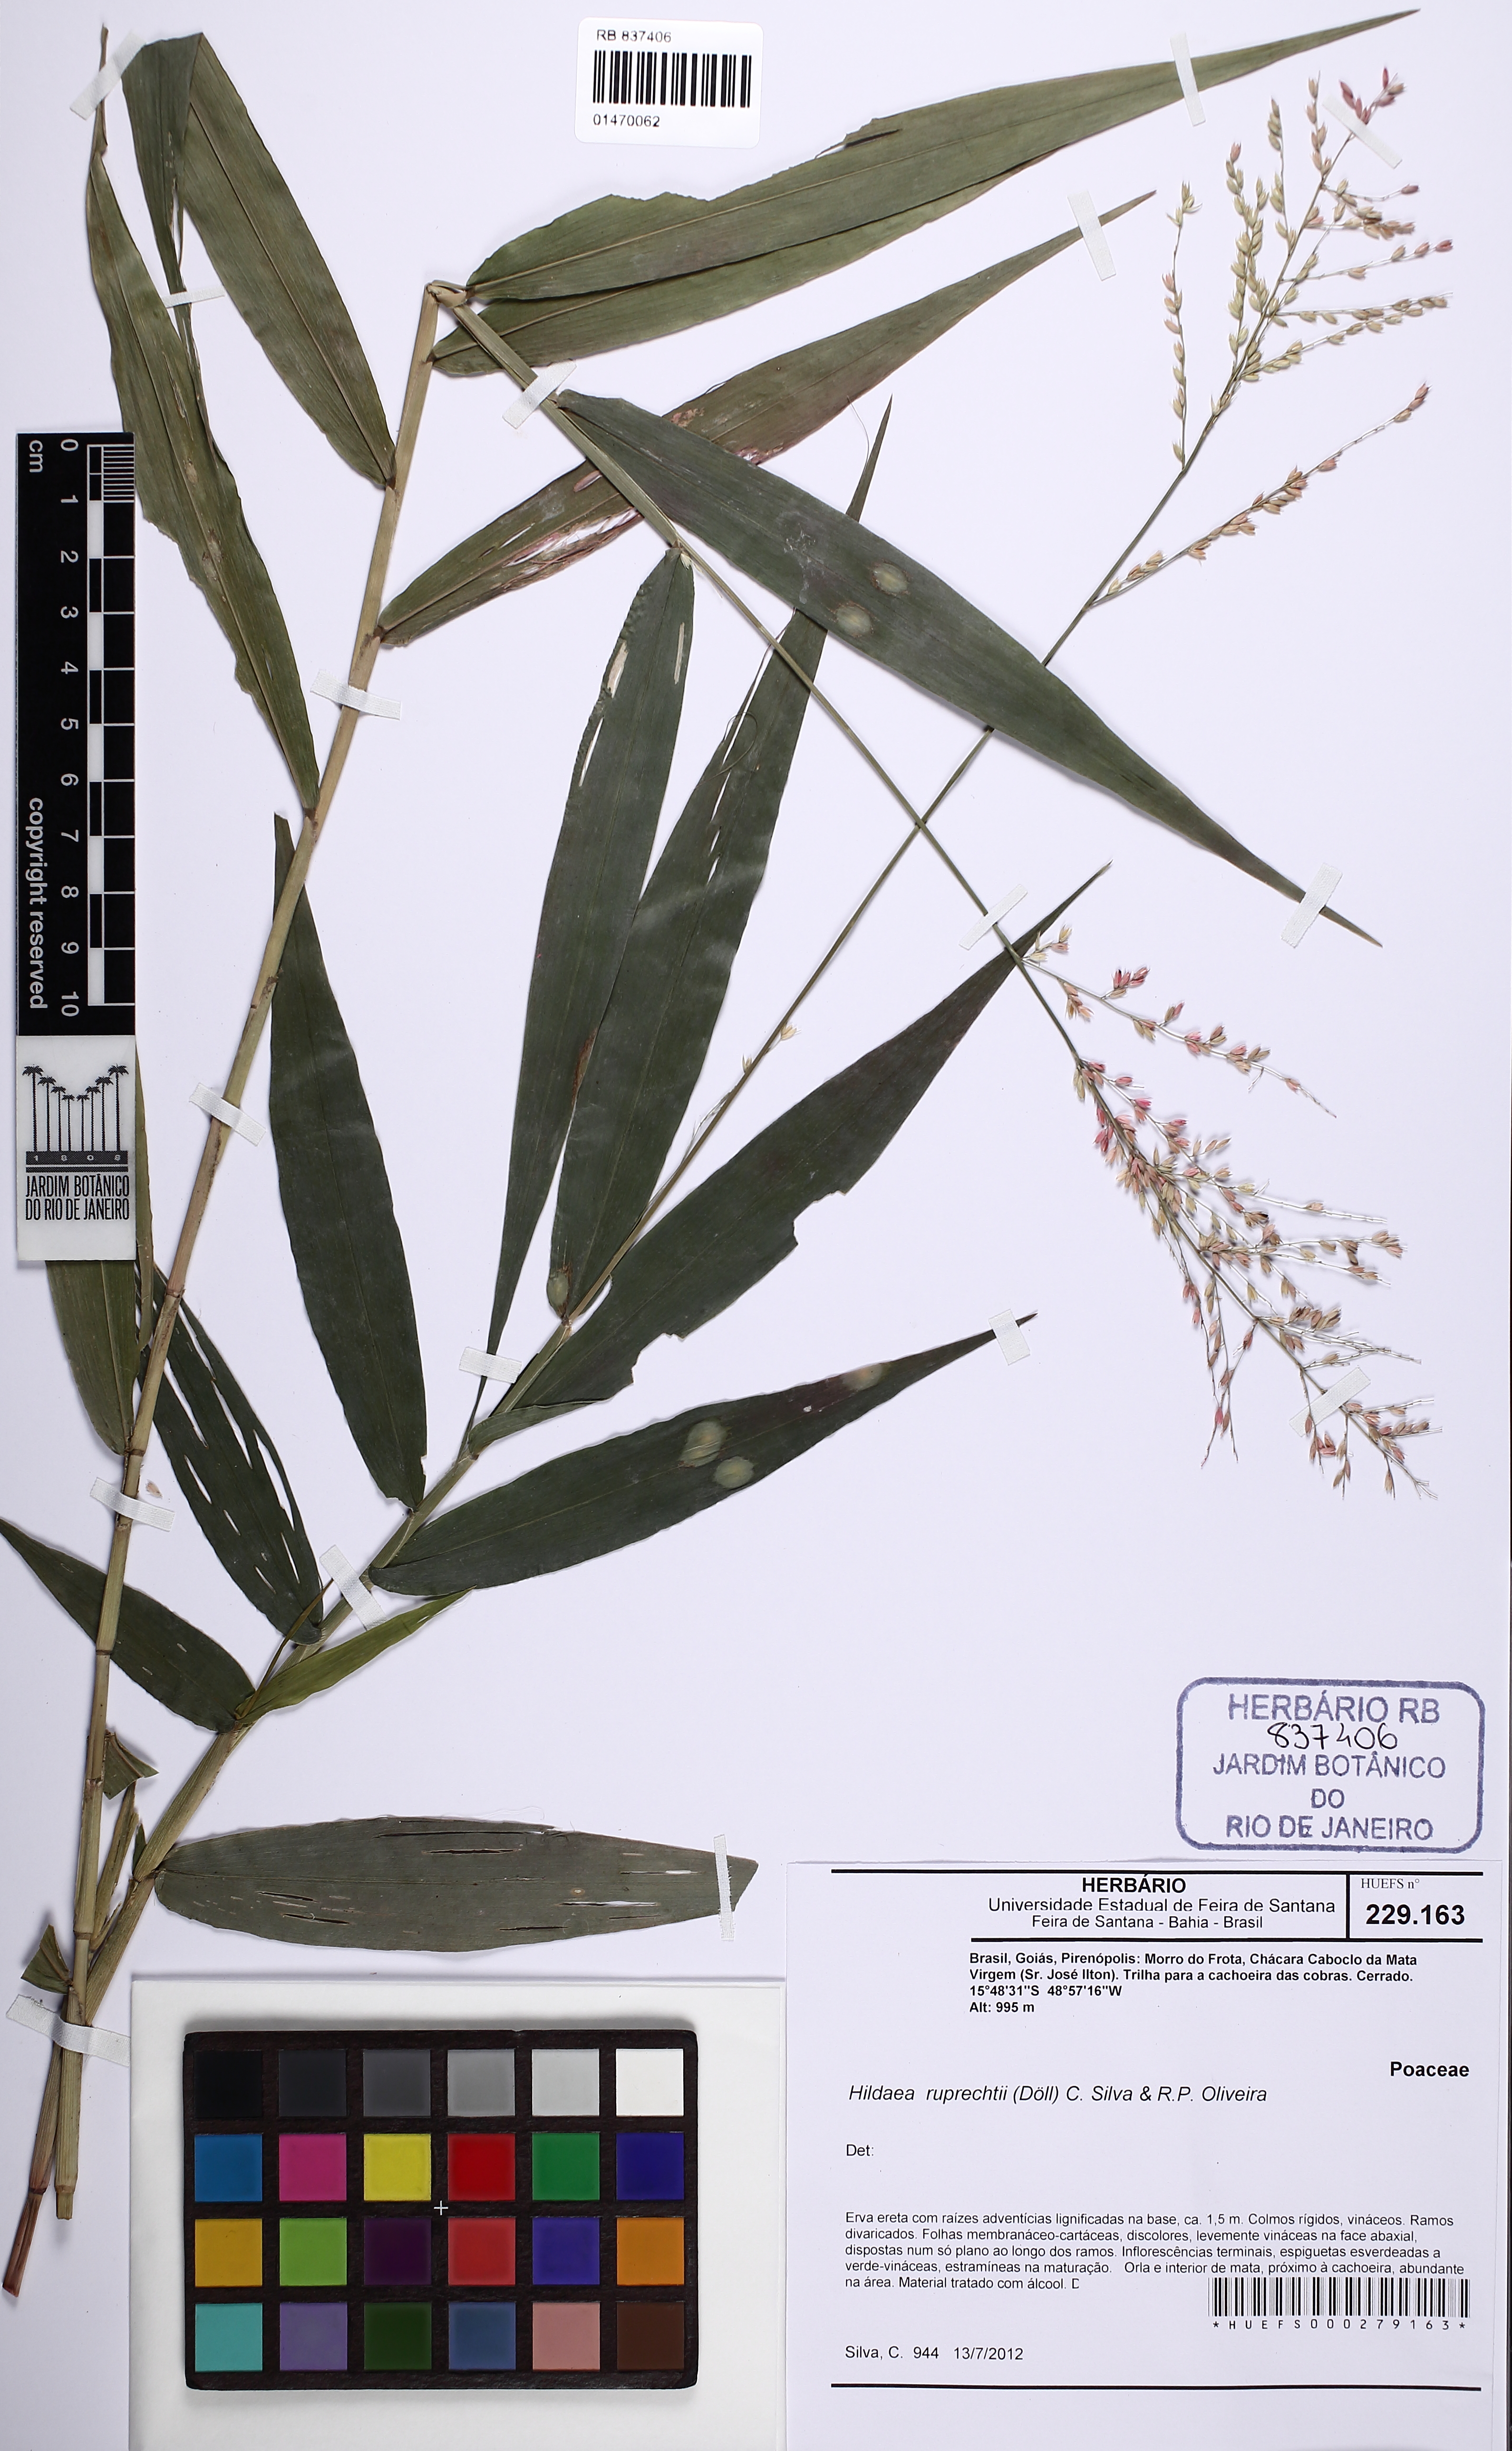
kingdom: Plantae
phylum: Tracheophyta
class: Liliopsida
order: Poales
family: Poaceae
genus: Ichnanthus
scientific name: Ichnanthus ruprechtii
